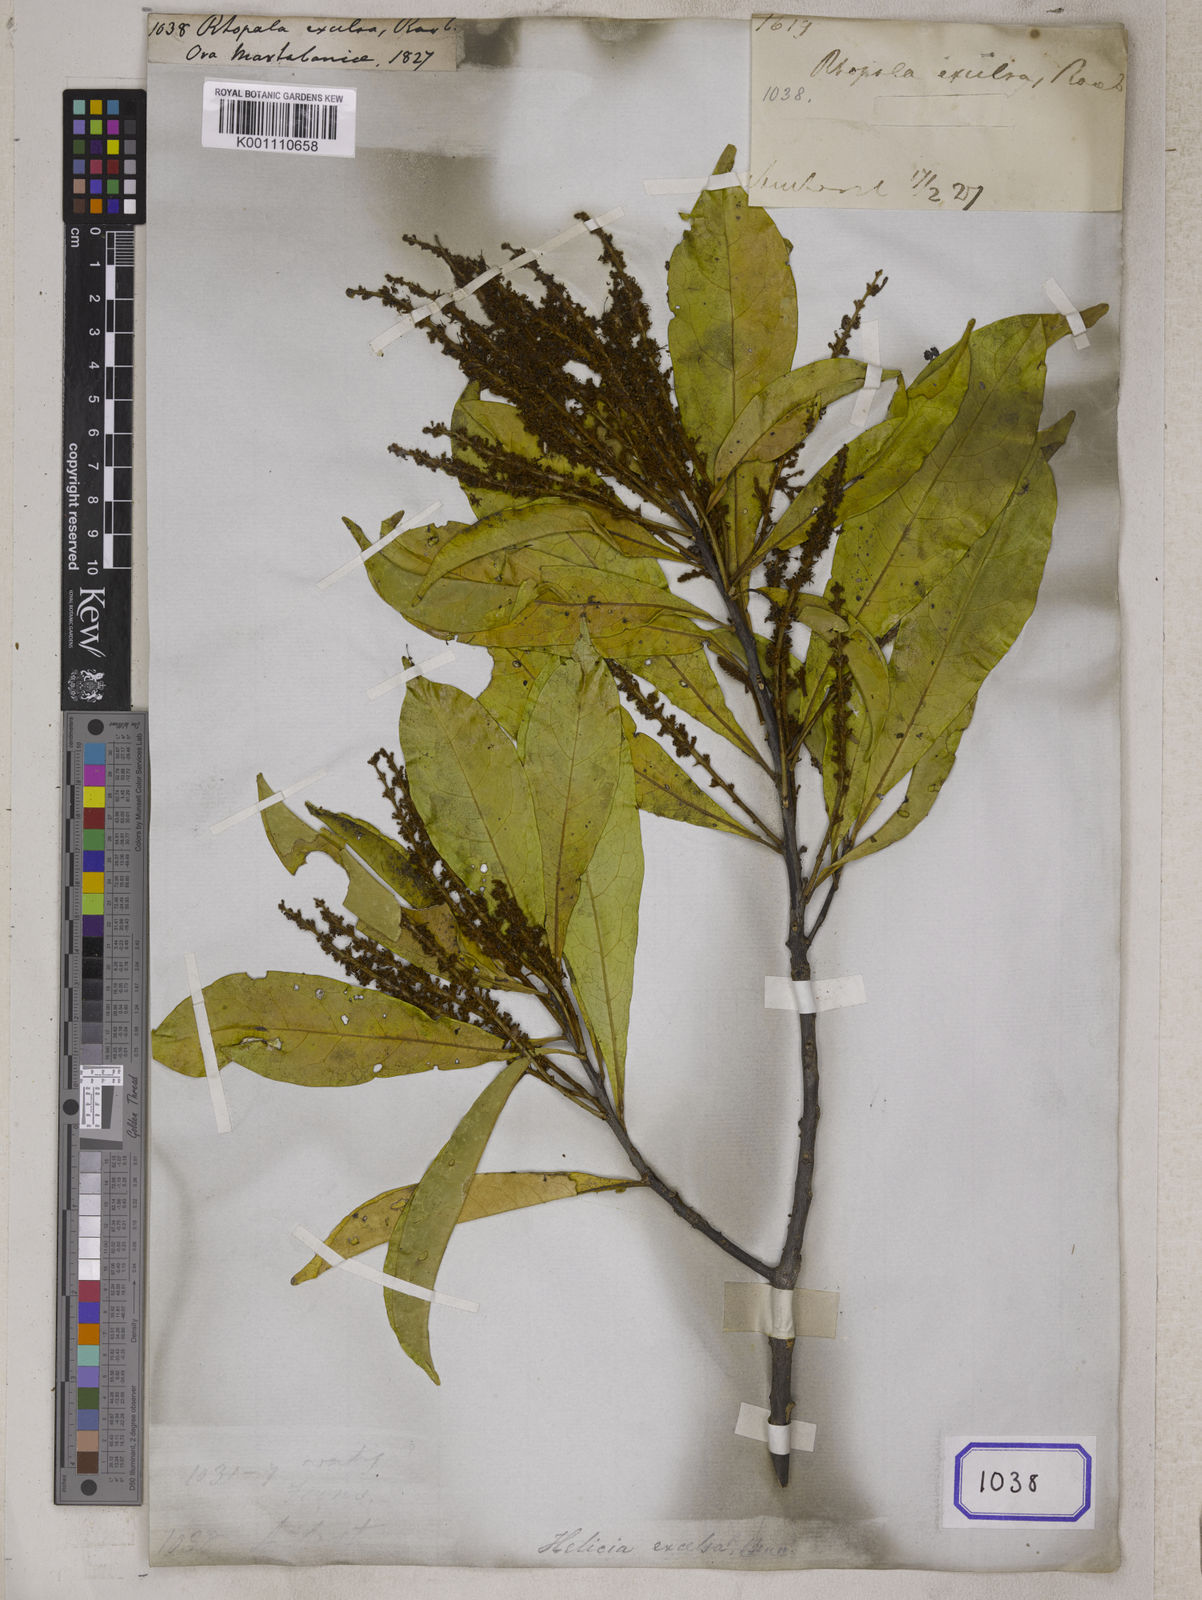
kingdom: Plantae
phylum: Tracheophyta
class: Magnoliopsida
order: Proteales
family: Proteaceae
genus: Helicia
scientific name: Helicia excelsa
